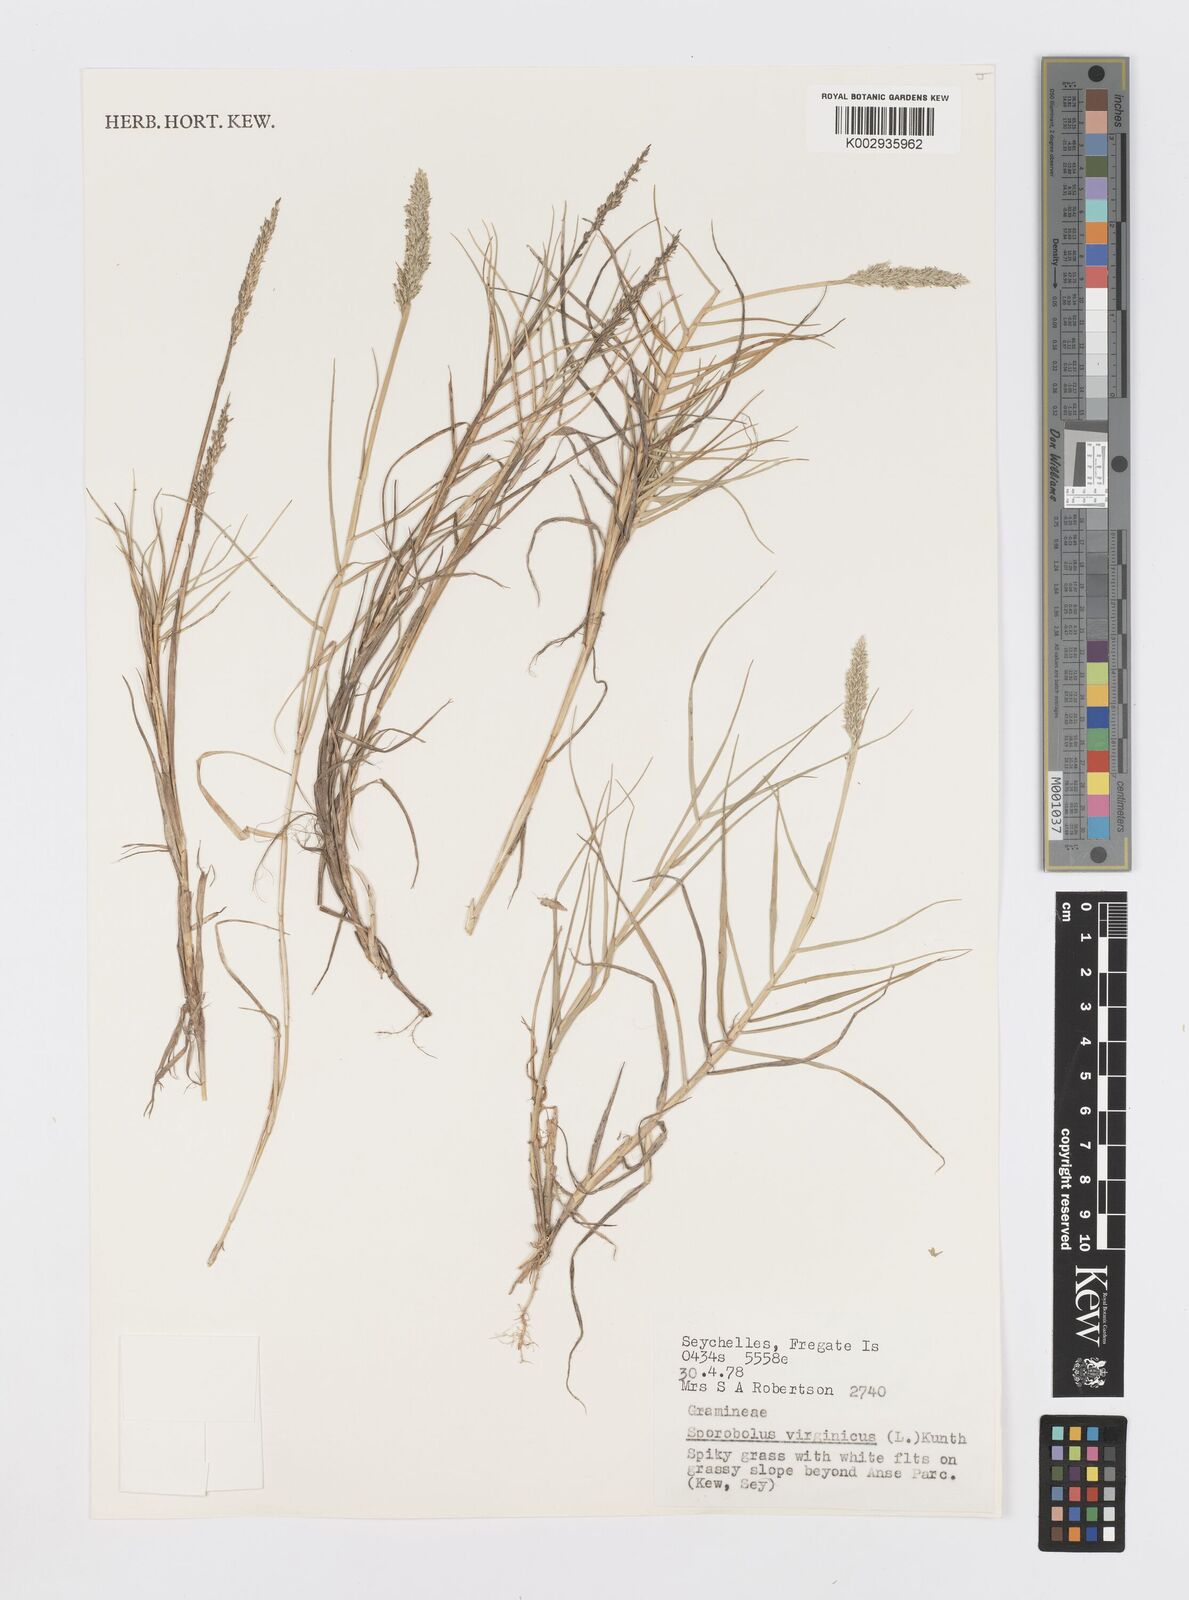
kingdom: Plantae
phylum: Tracheophyta
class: Liliopsida
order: Poales
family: Poaceae
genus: Sporobolus
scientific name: Sporobolus virginicus
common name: Beach dropseed
